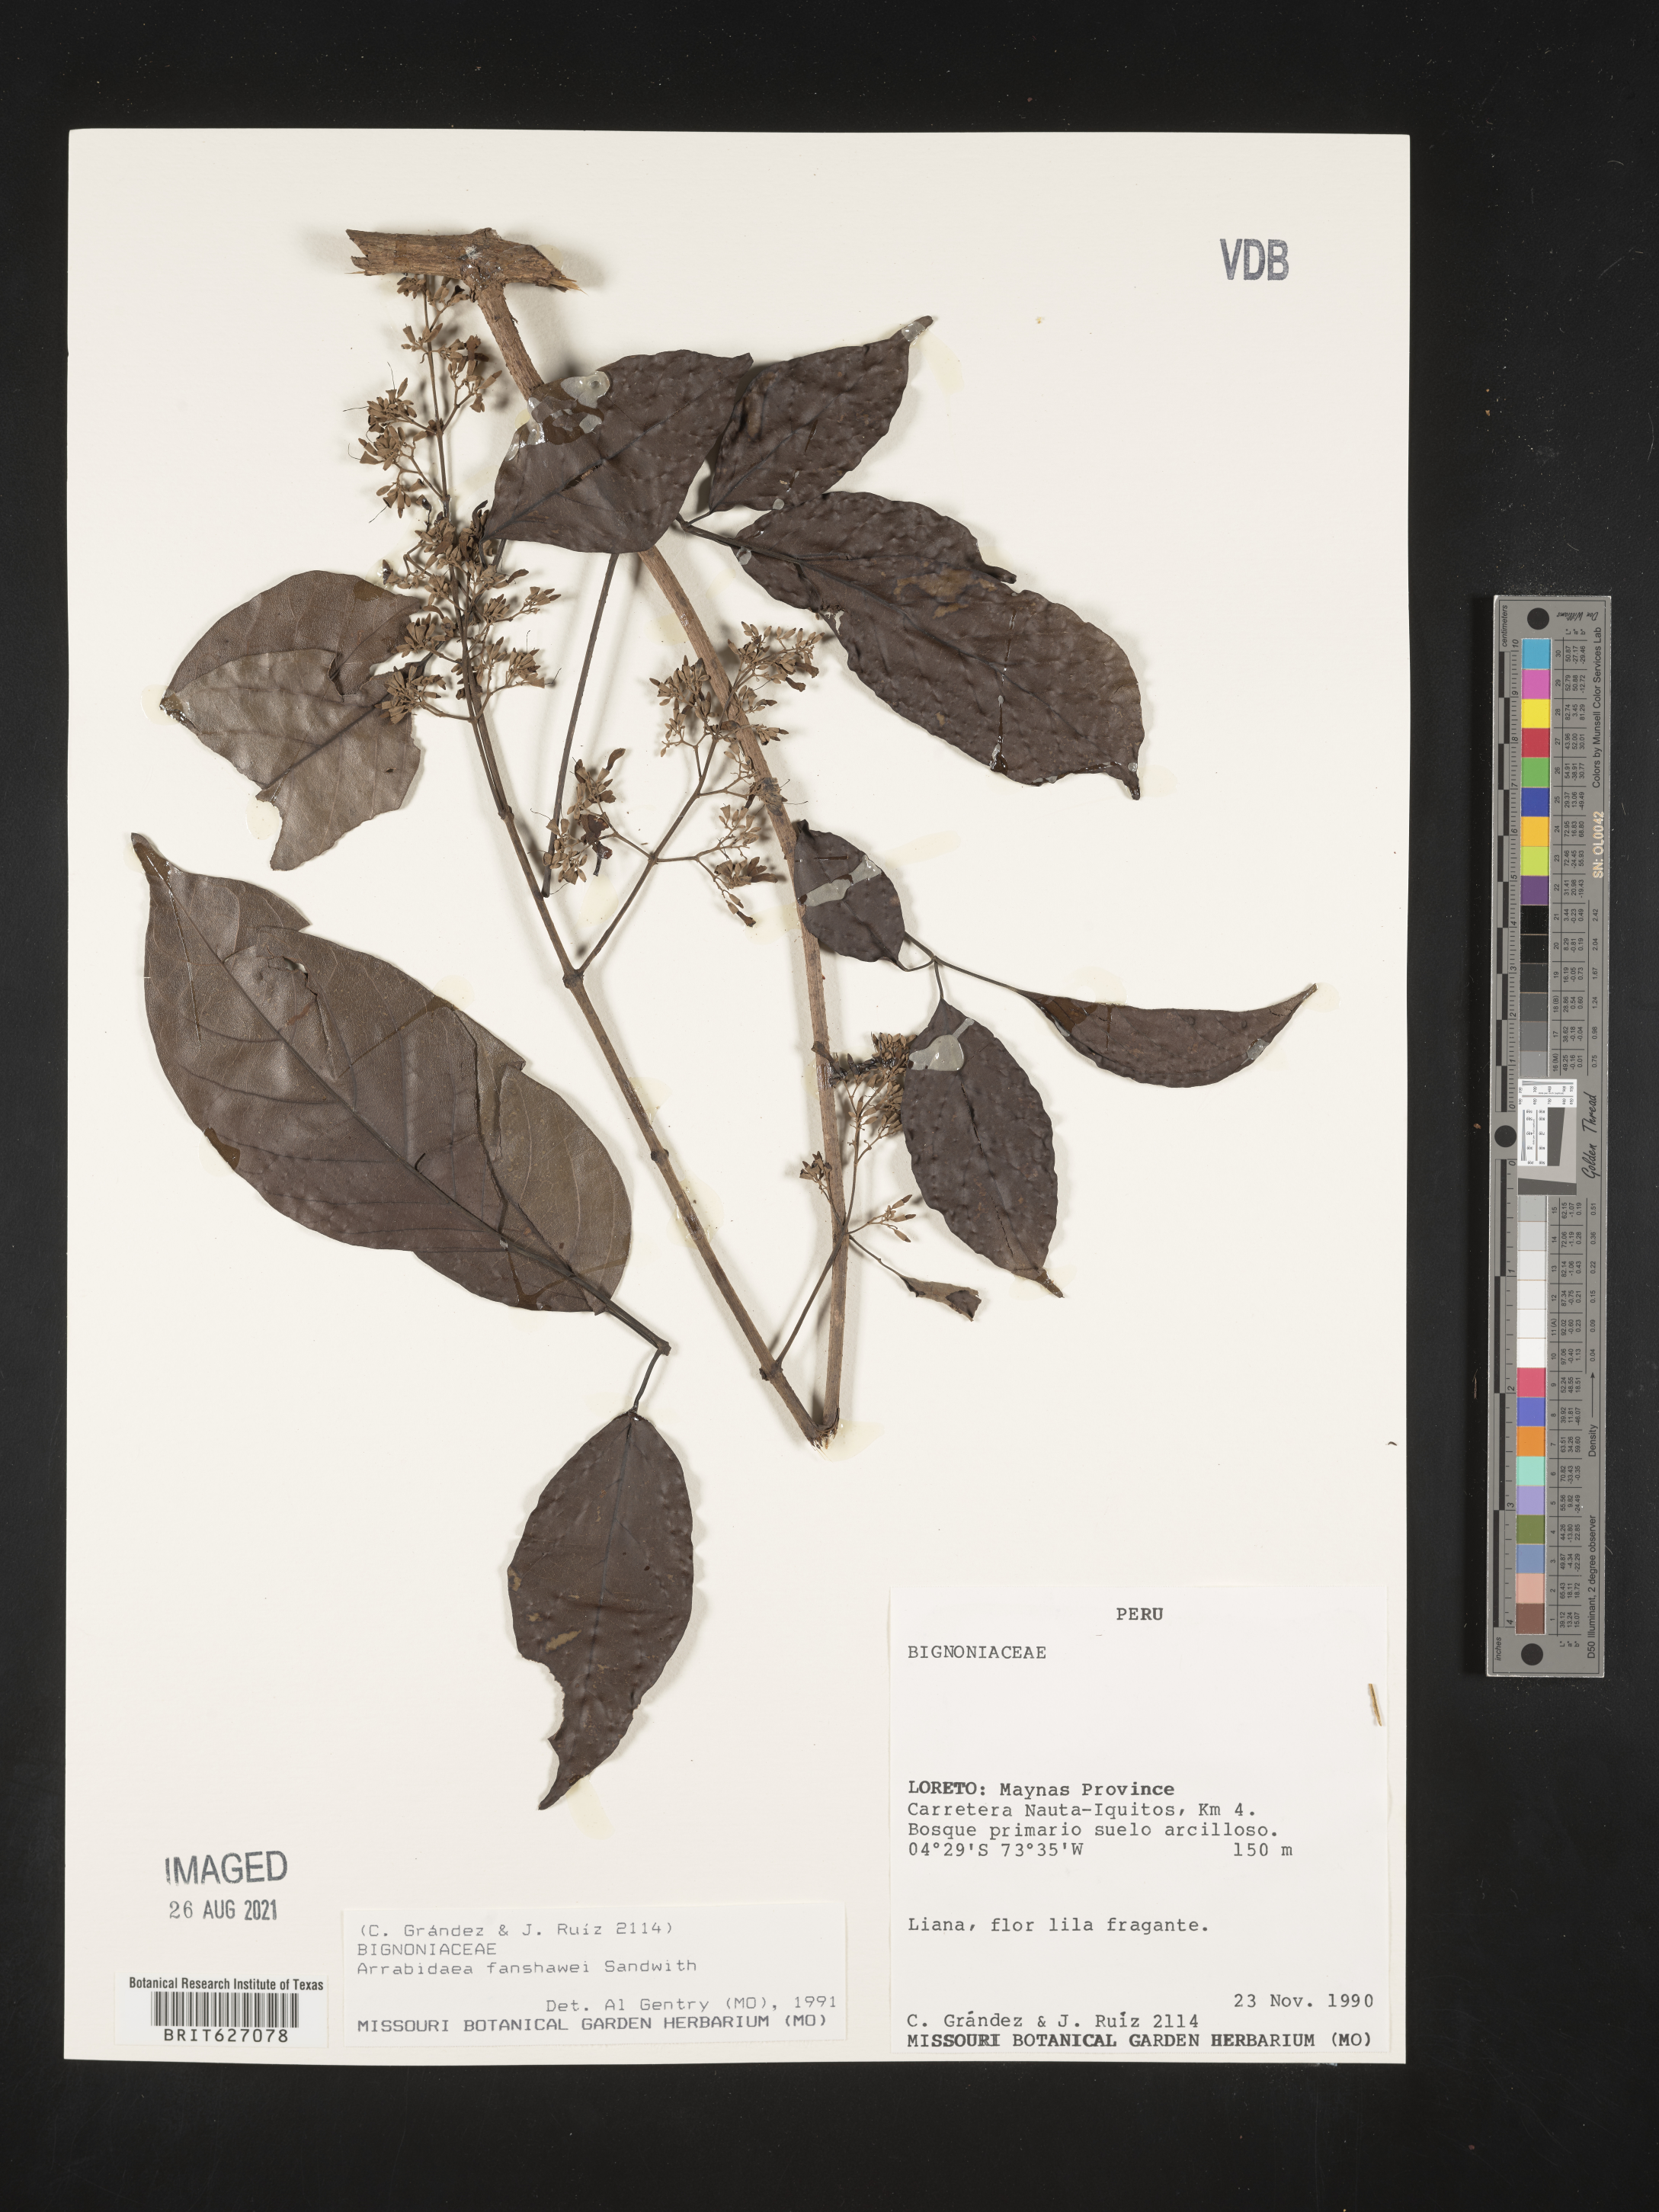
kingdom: Plantae
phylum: Tracheophyta
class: Magnoliopsida
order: Lamiales
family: Bignoniaceae
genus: Fridericia
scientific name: Fridericia fanshawei
